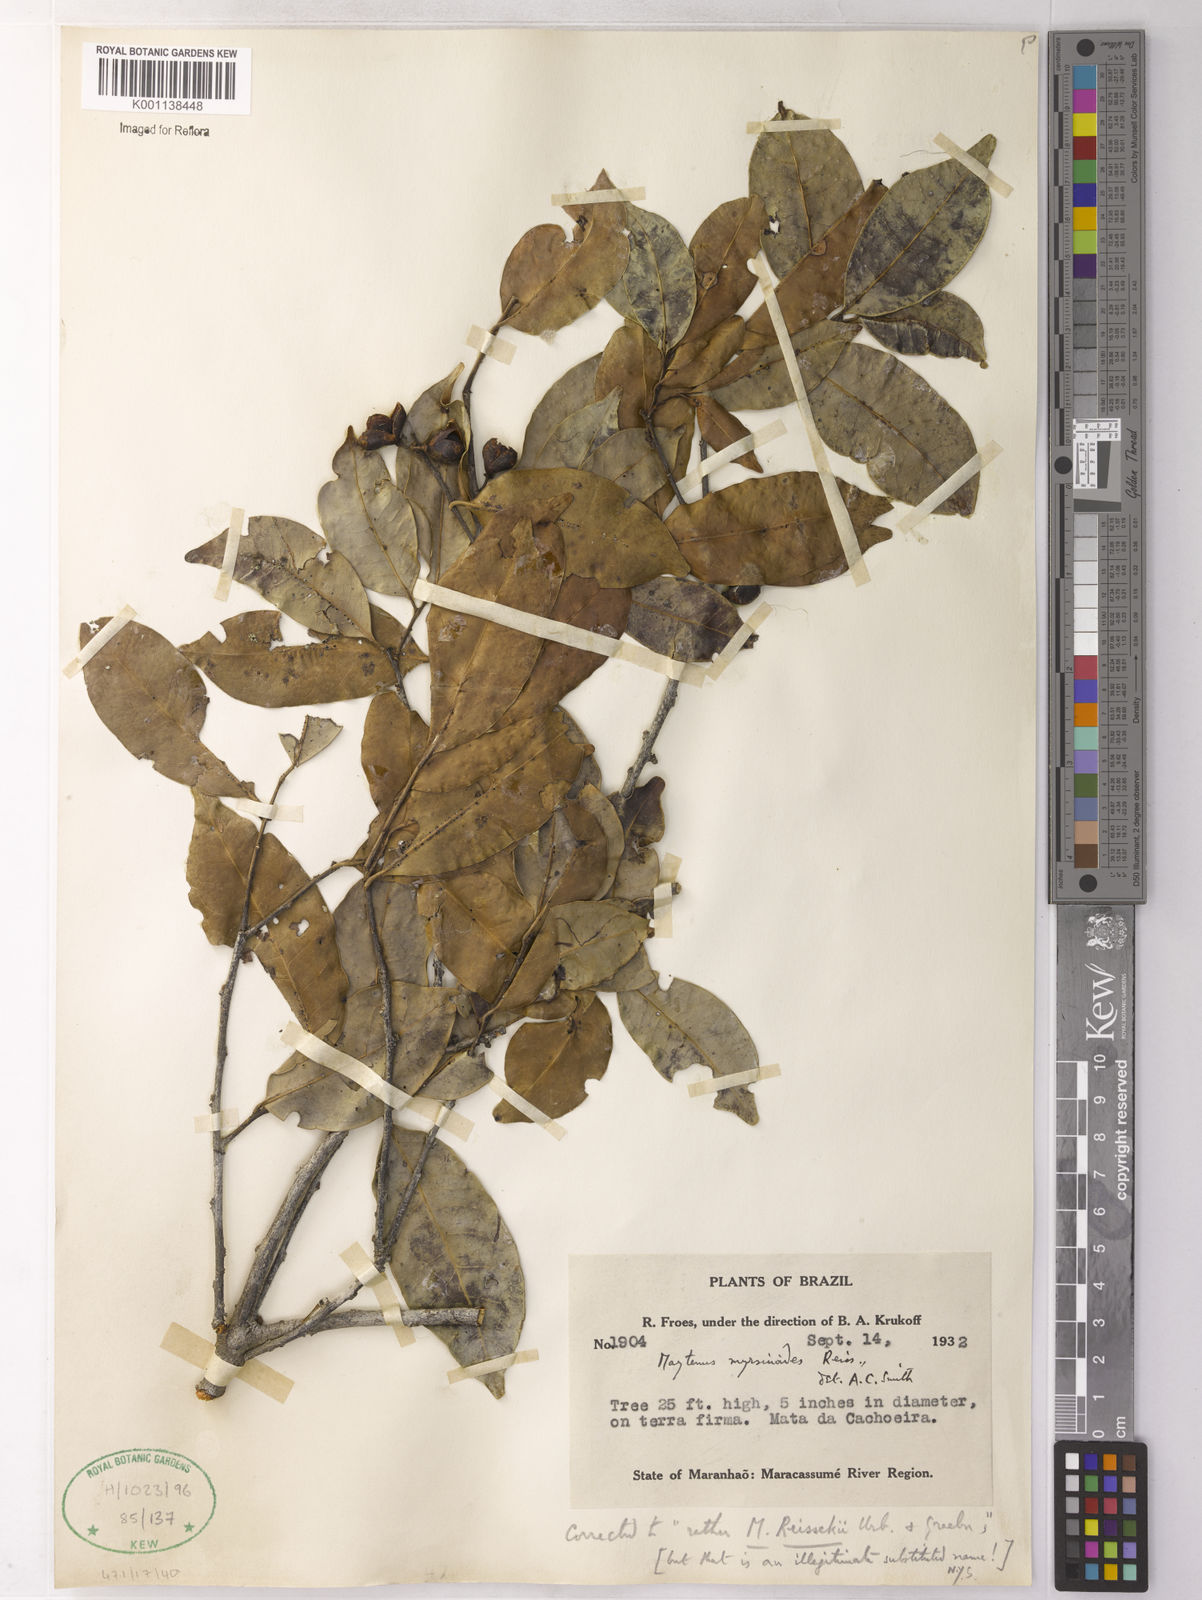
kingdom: Plantae
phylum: Tracheophyta
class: Magnoliopsida
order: Celastrales
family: Celastraceae
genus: Monteverdia
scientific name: Monteverdia myrsinoides
